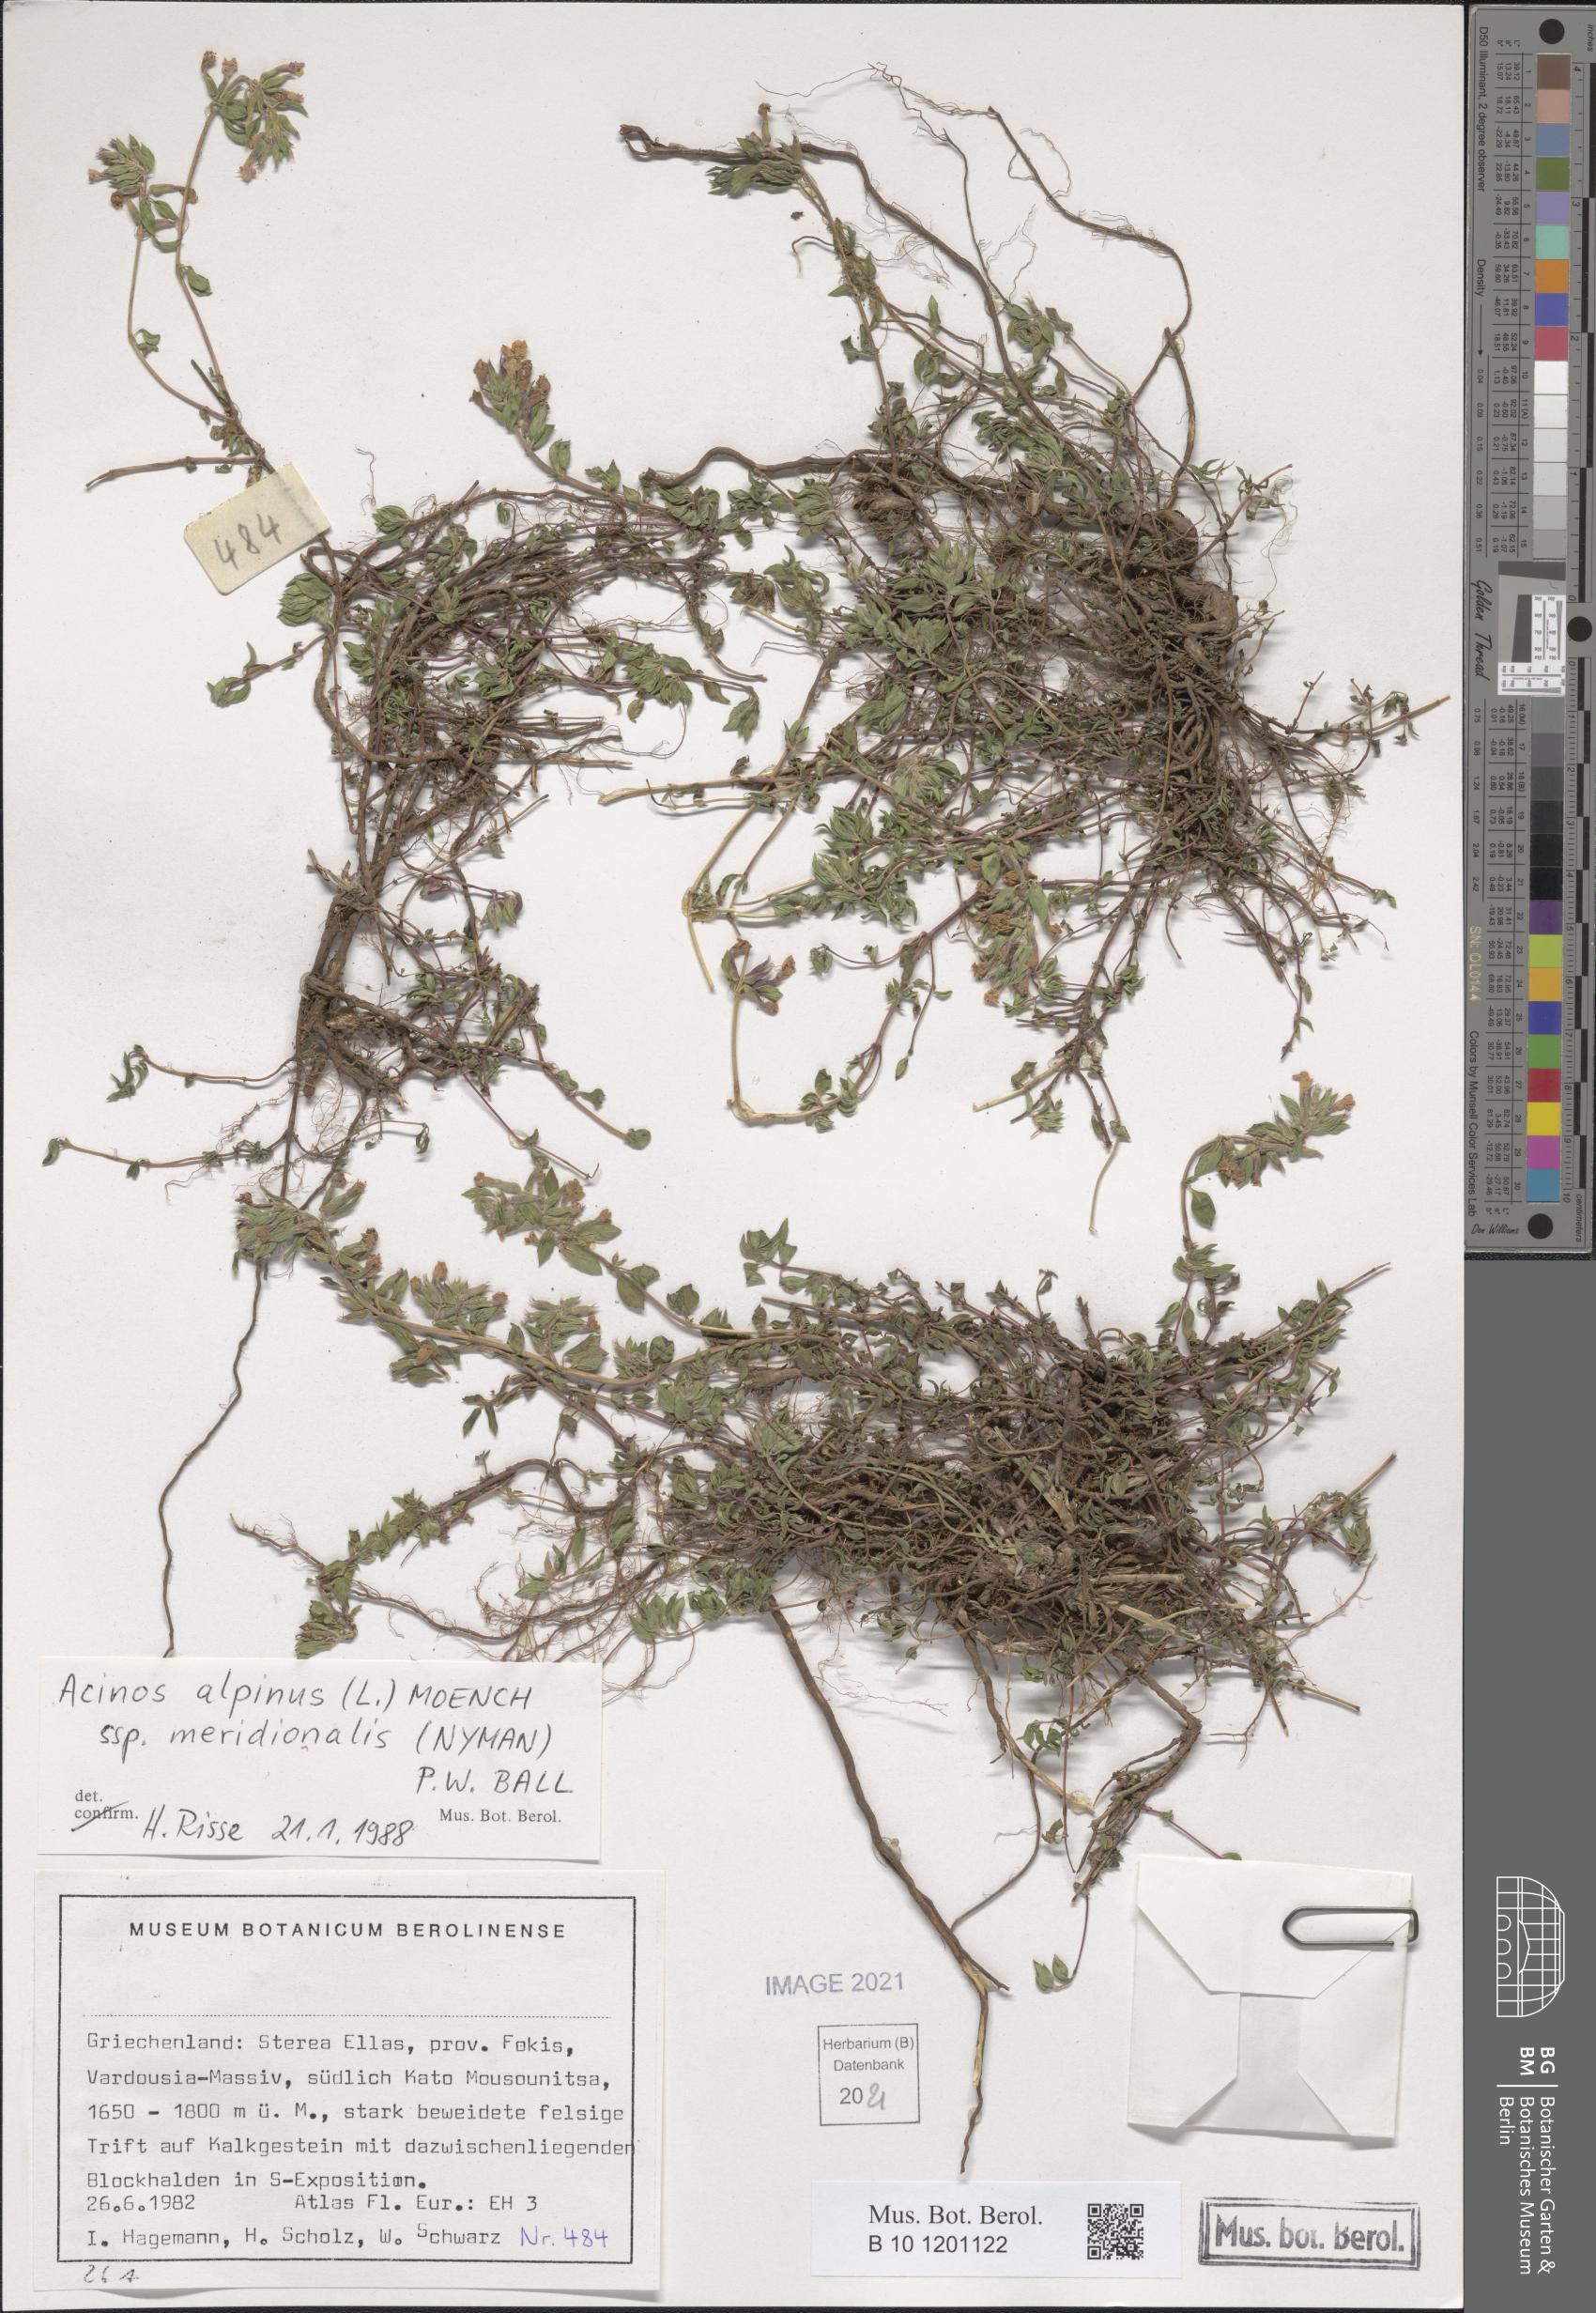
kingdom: Plantae
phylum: Tracheophyta
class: Magnoliopsida
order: Lamiales
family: Lamiaceae
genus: Clinopodium
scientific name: Clinopodium alpinum
